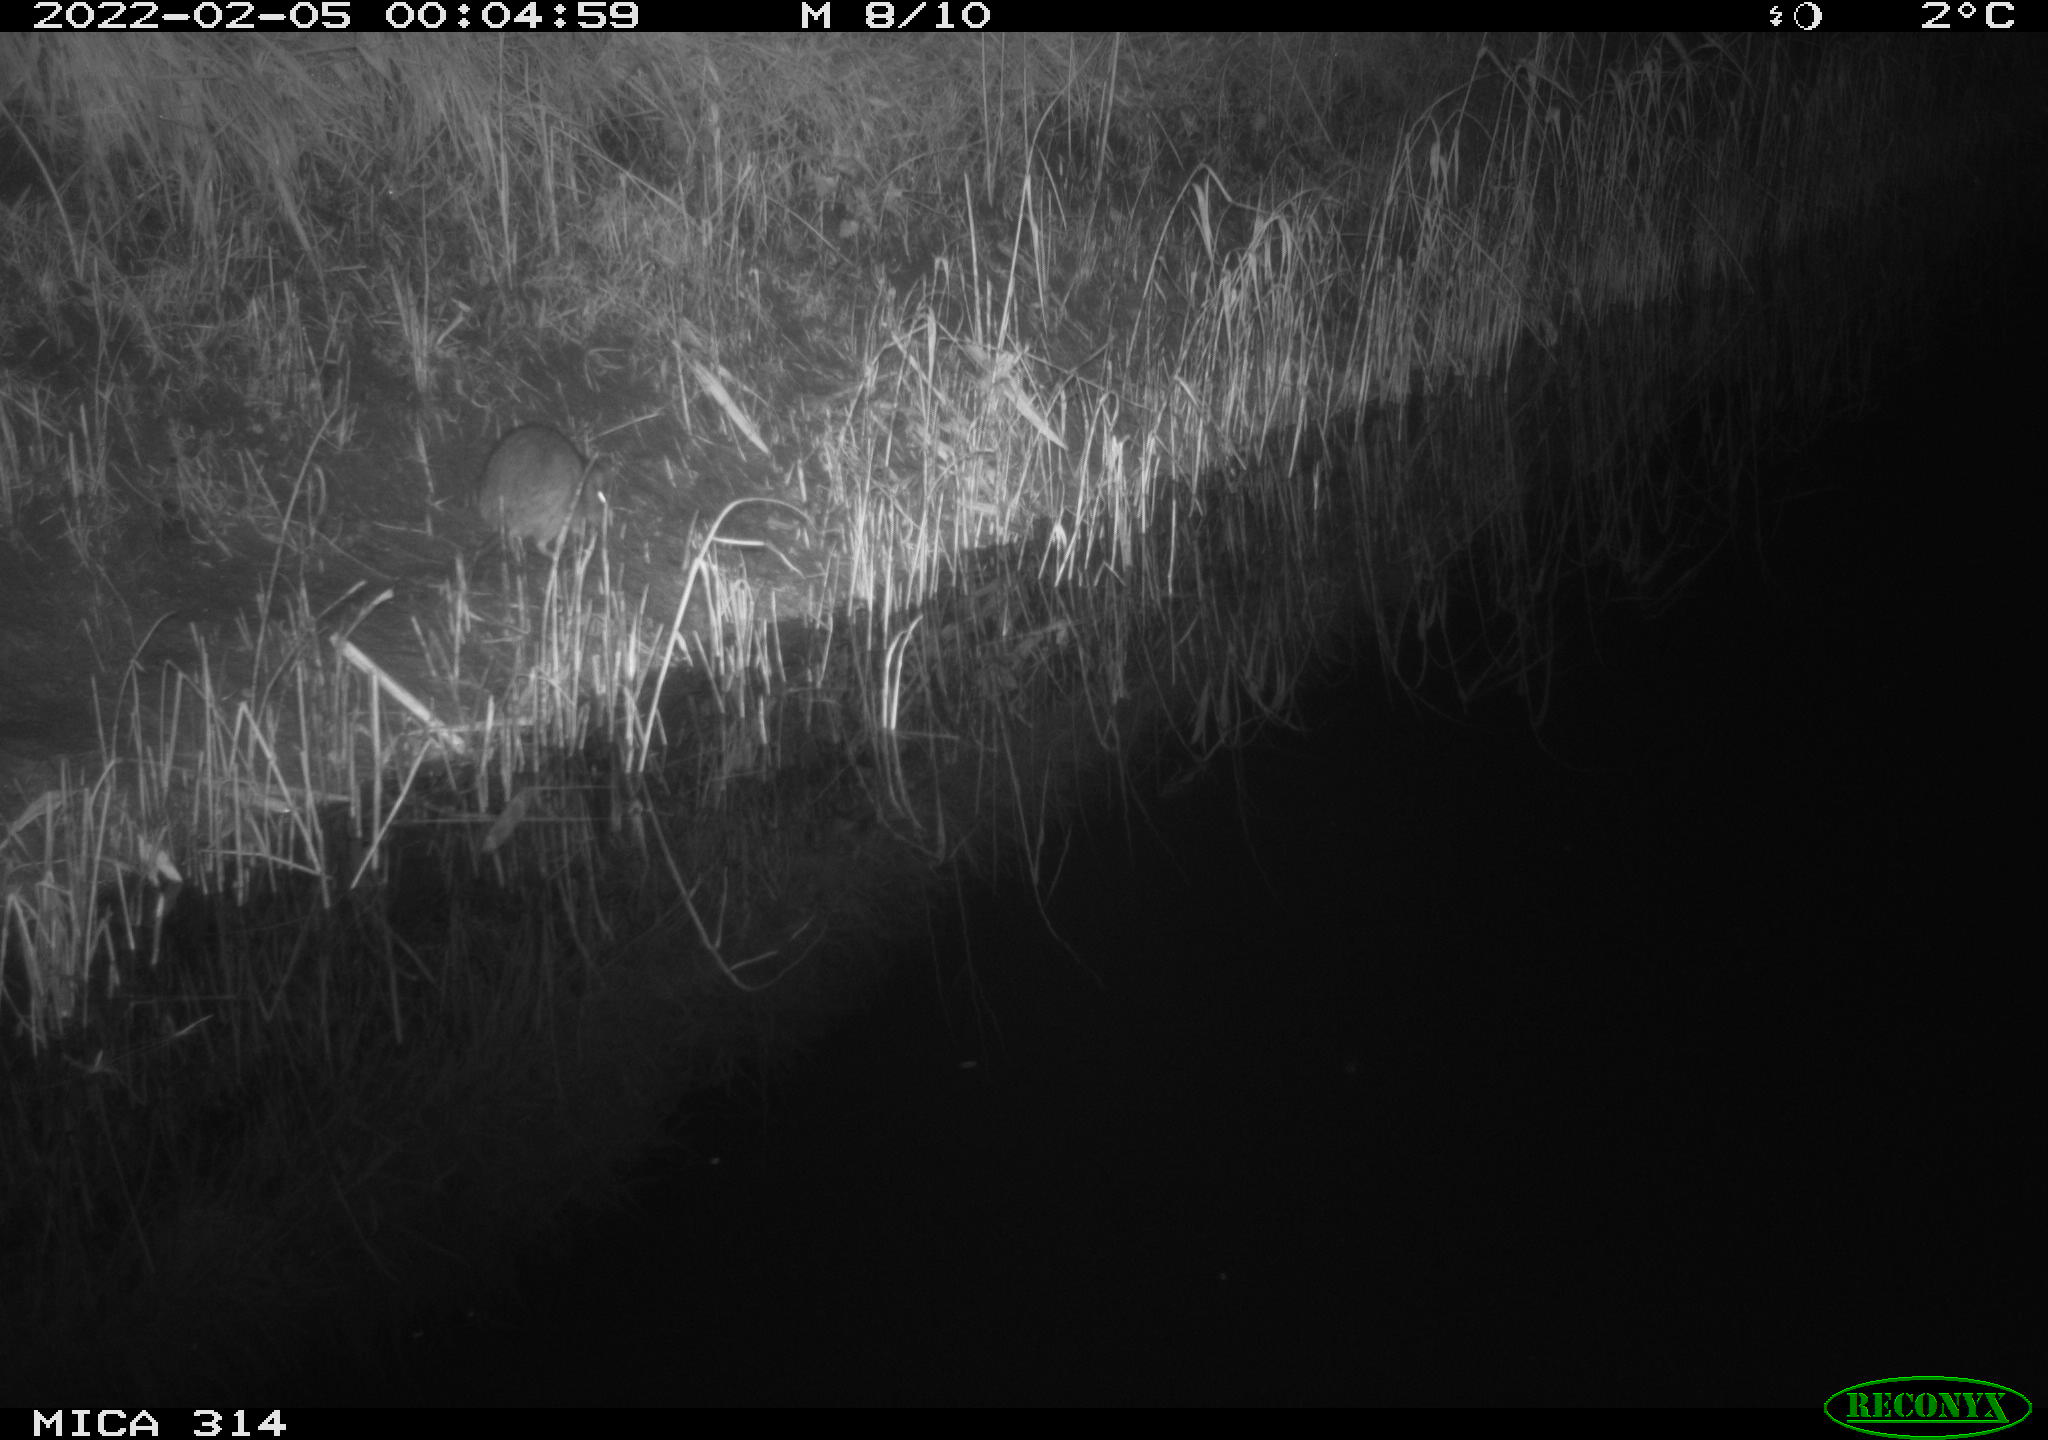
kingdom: Animalia
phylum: Chordata
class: Mammalia
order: Rodentia
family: Muridae
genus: Rattus
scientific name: Rattus norvegicus
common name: Brown rat
